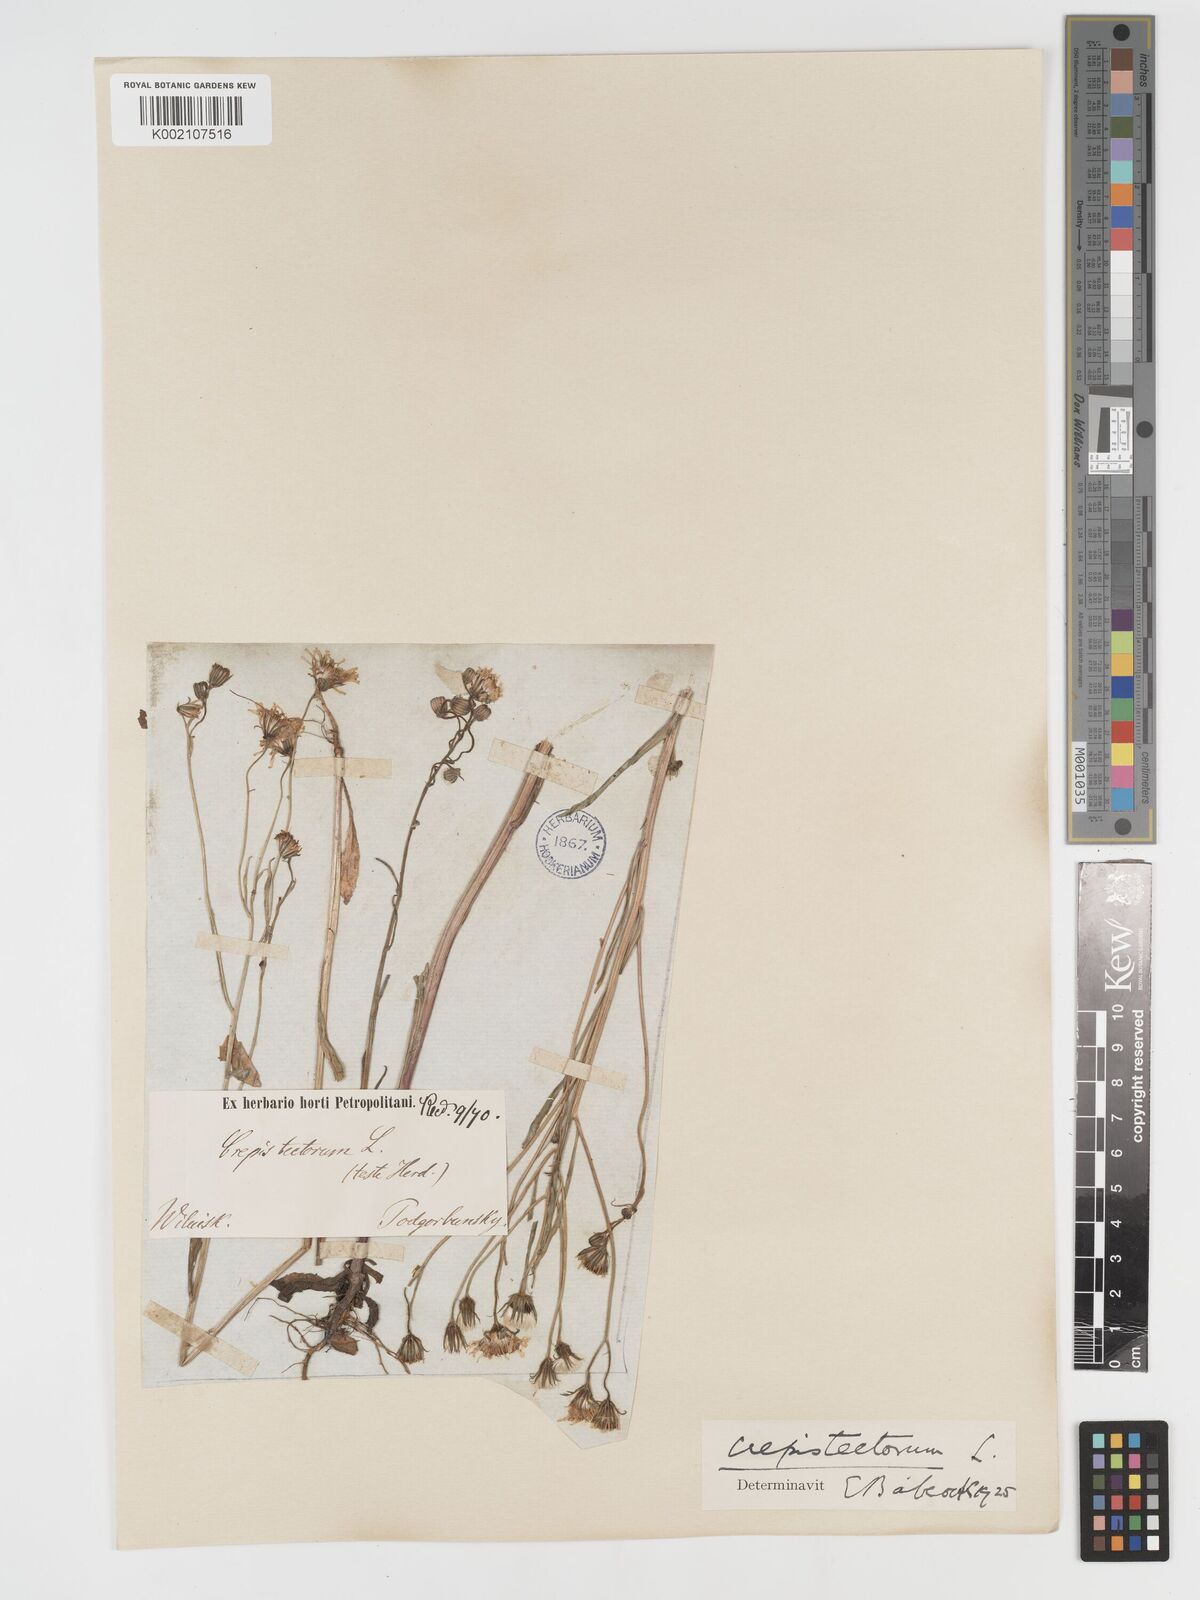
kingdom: Plantae
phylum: Tracheophyta
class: Magnoliopsida
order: Asterales
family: Asteraceae
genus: Crepis
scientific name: Crepis tectorum
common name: Narrow-leaved hawk's-beard
